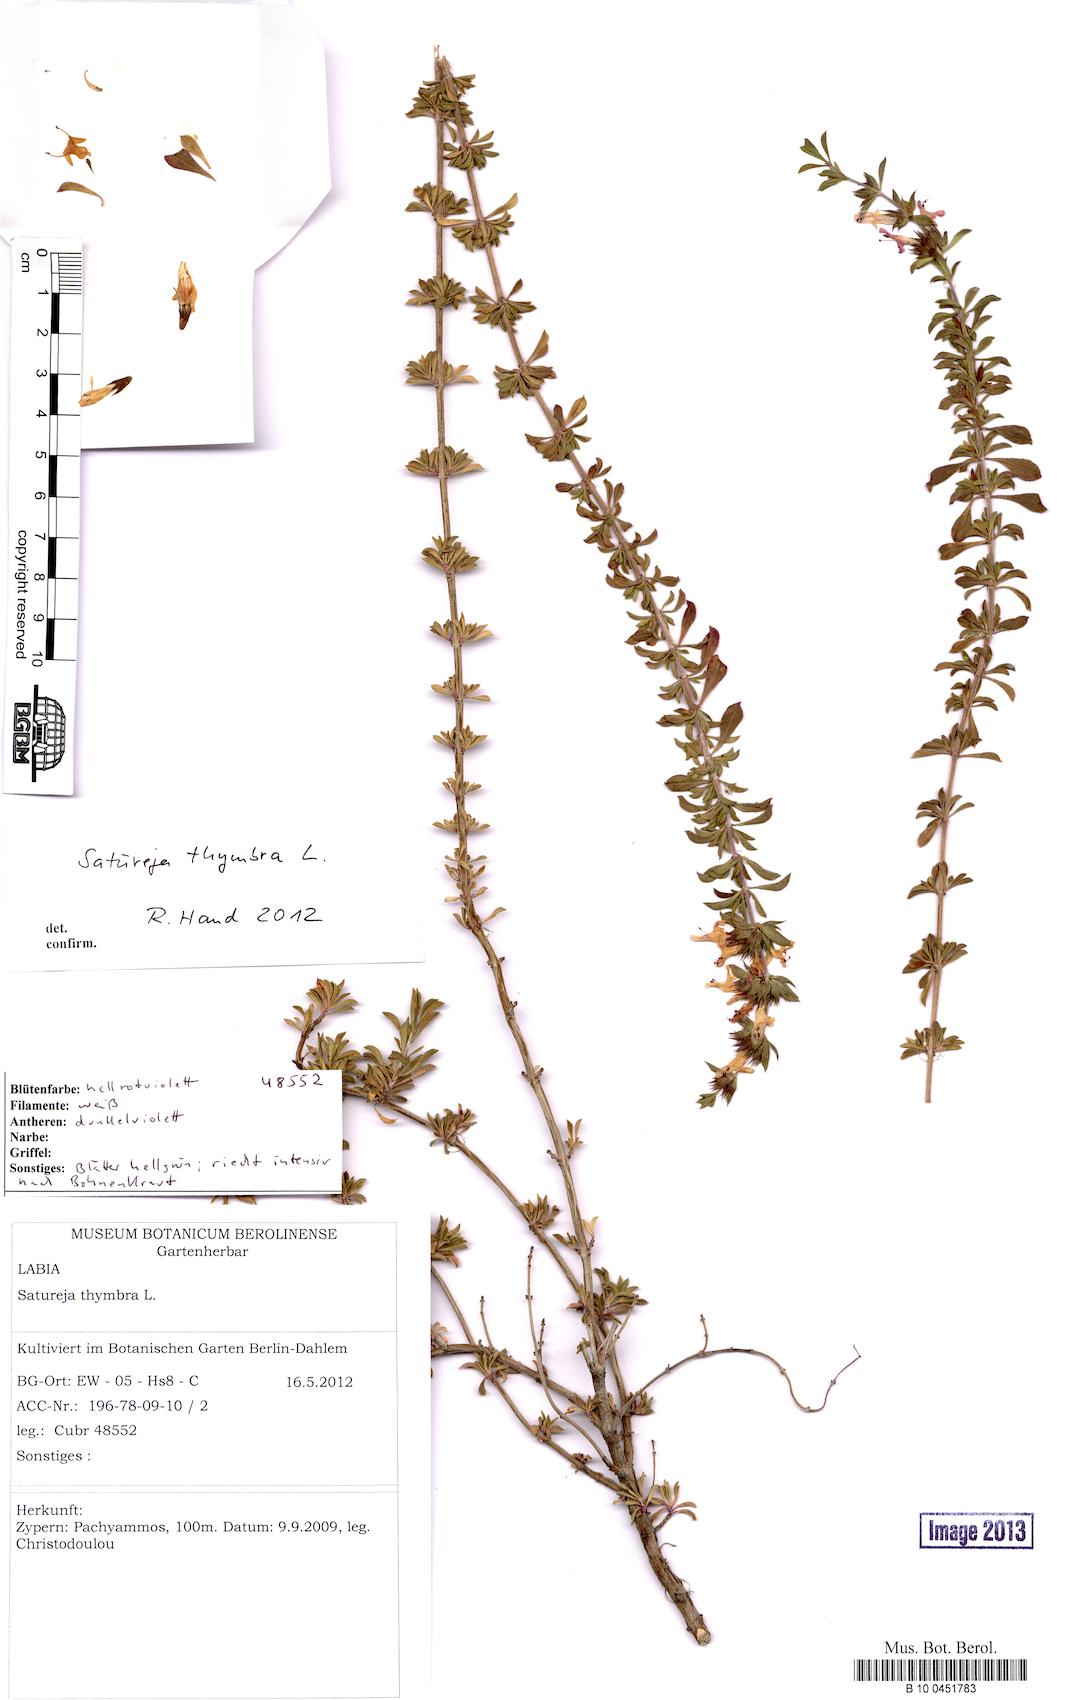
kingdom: Plantae
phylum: Tracheophyta
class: Magnoliopsida
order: Lamiales
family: Lamiaceae
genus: Satureja
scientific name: Satureja thymbra
